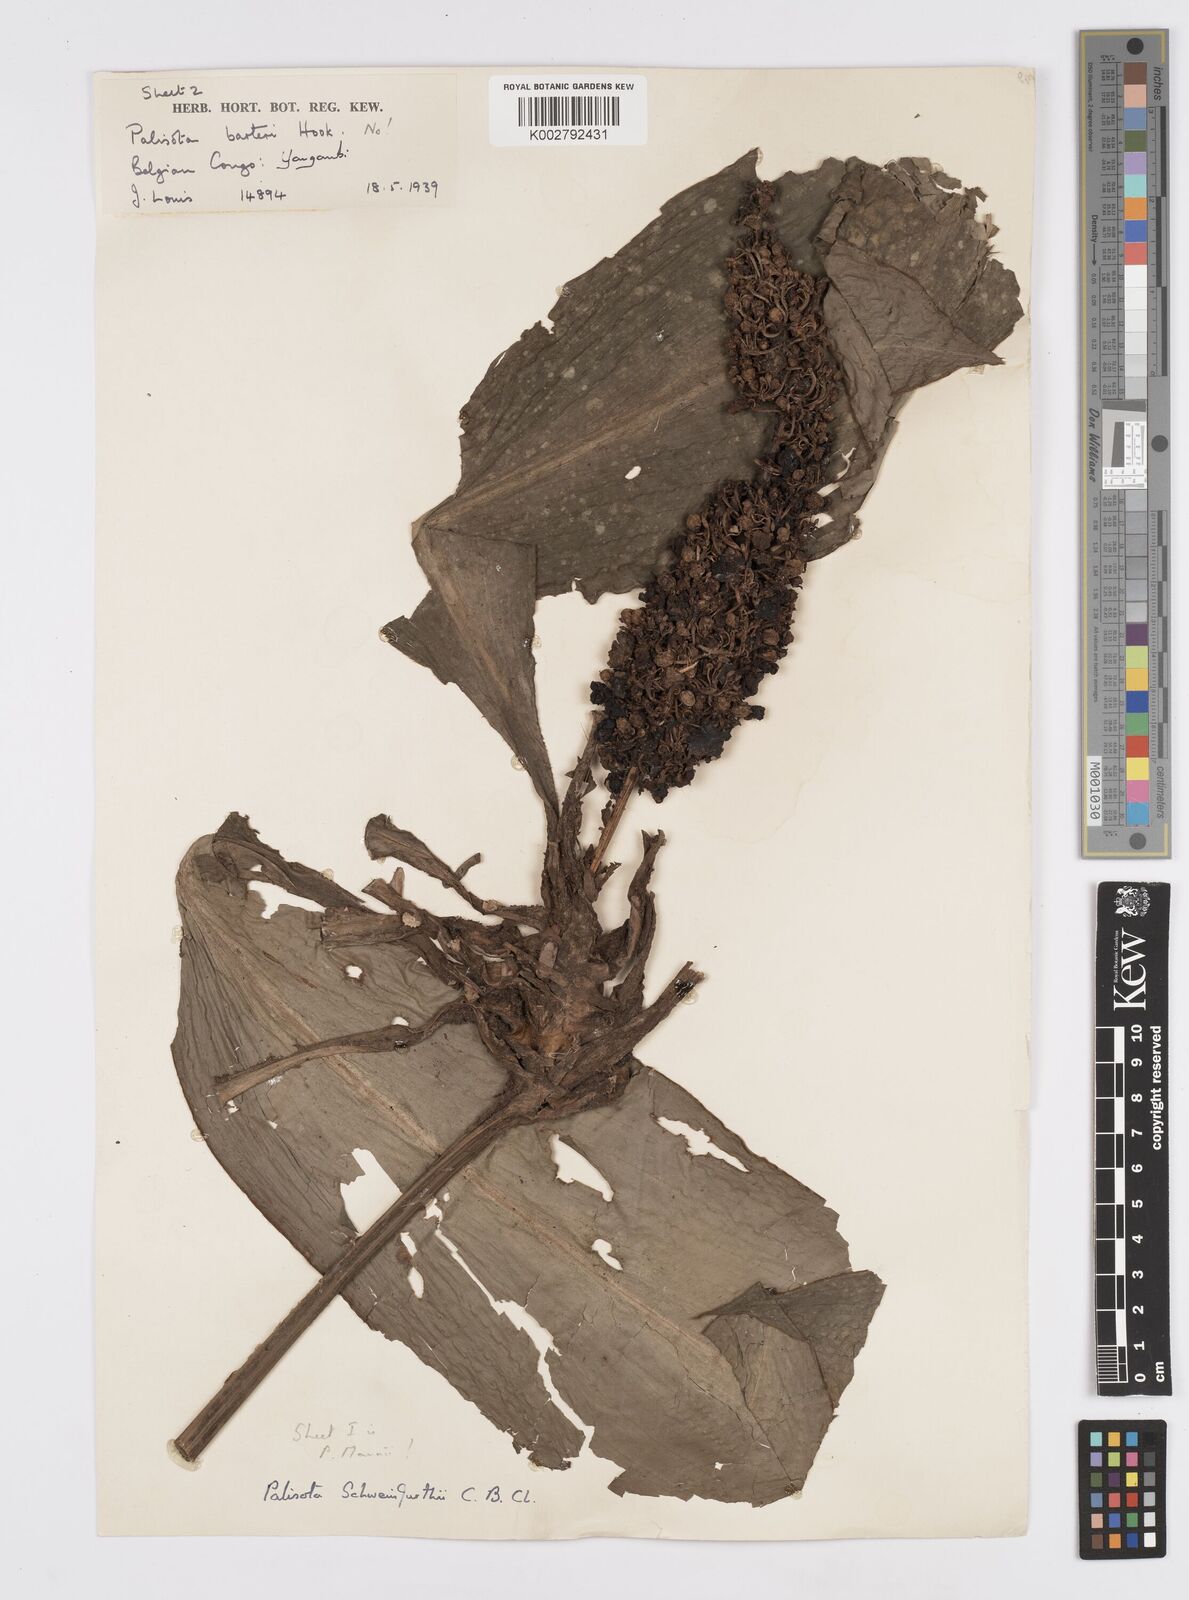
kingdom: Plantae
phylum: Tracheophyta
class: Liliopsida
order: Commelinales
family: Commelinaceae
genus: Palisota
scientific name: Palisota schweinfurthii
